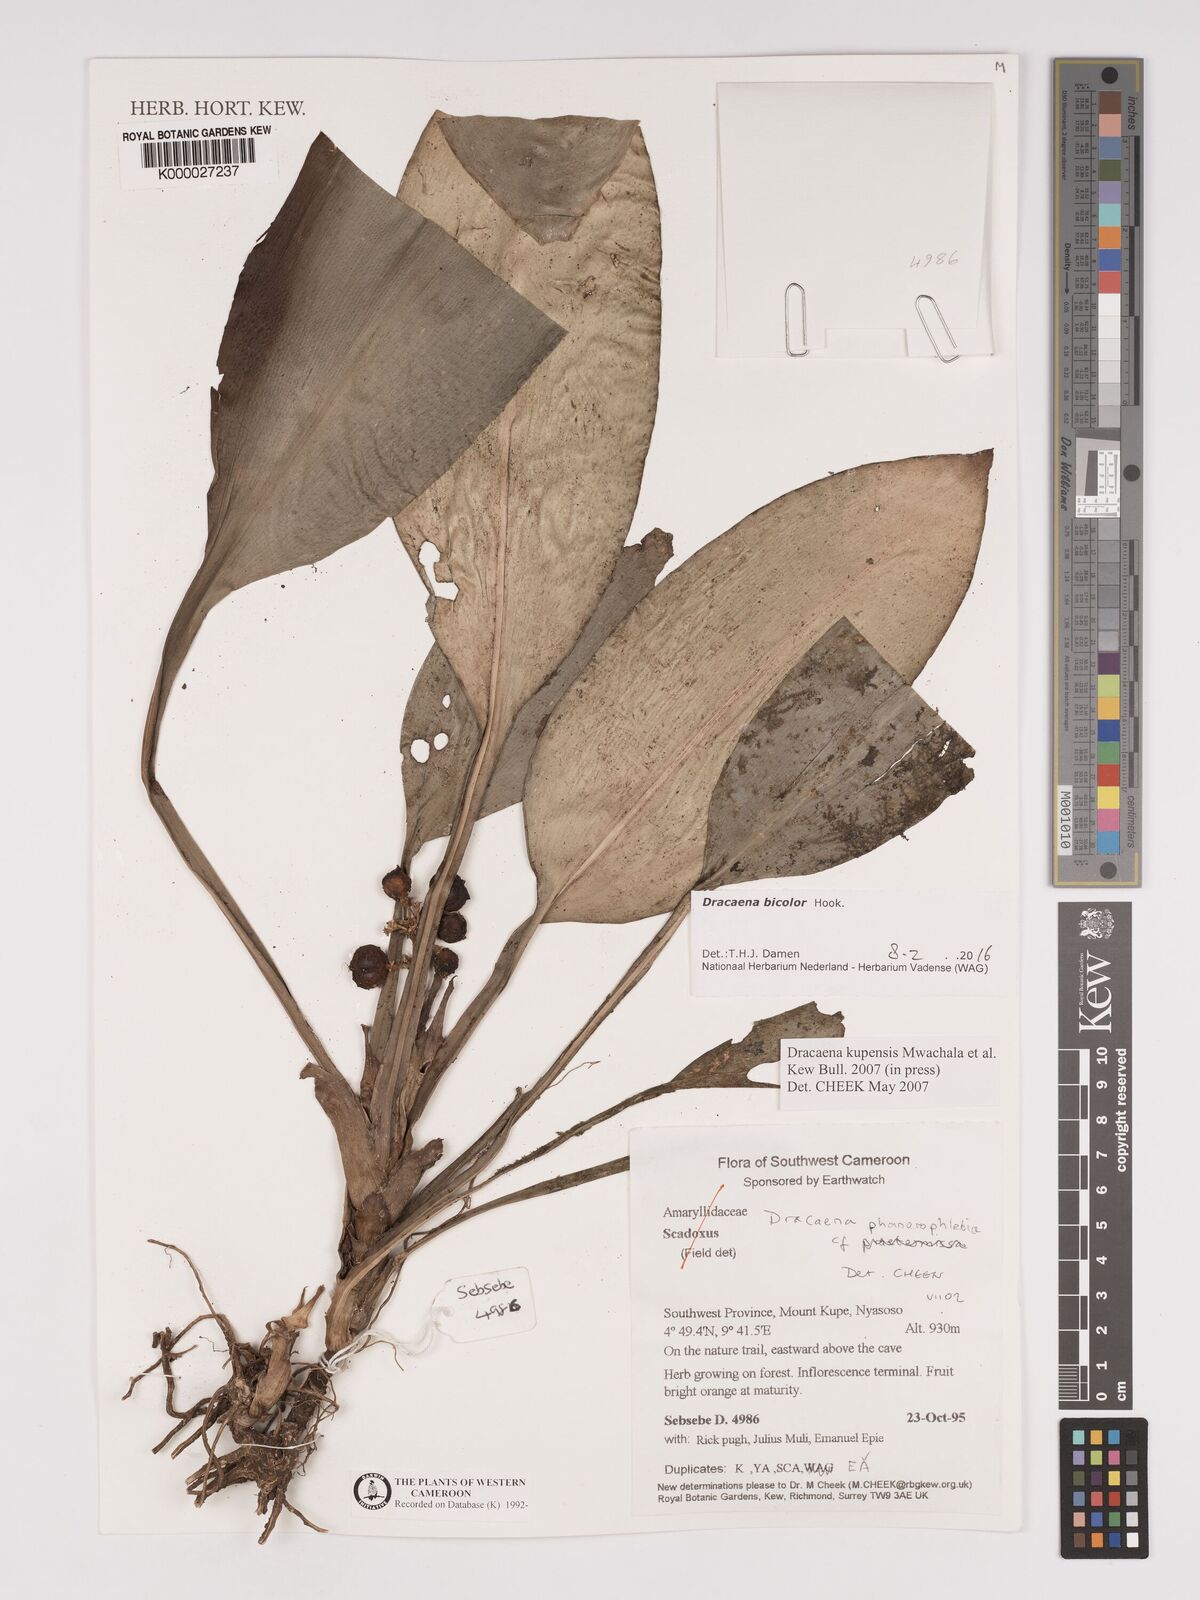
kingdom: Plantae
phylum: Tracheophyta
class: Liliopsida
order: Asparagales
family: Asparagaceae
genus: Dracaena
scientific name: Dracaena kupensis
